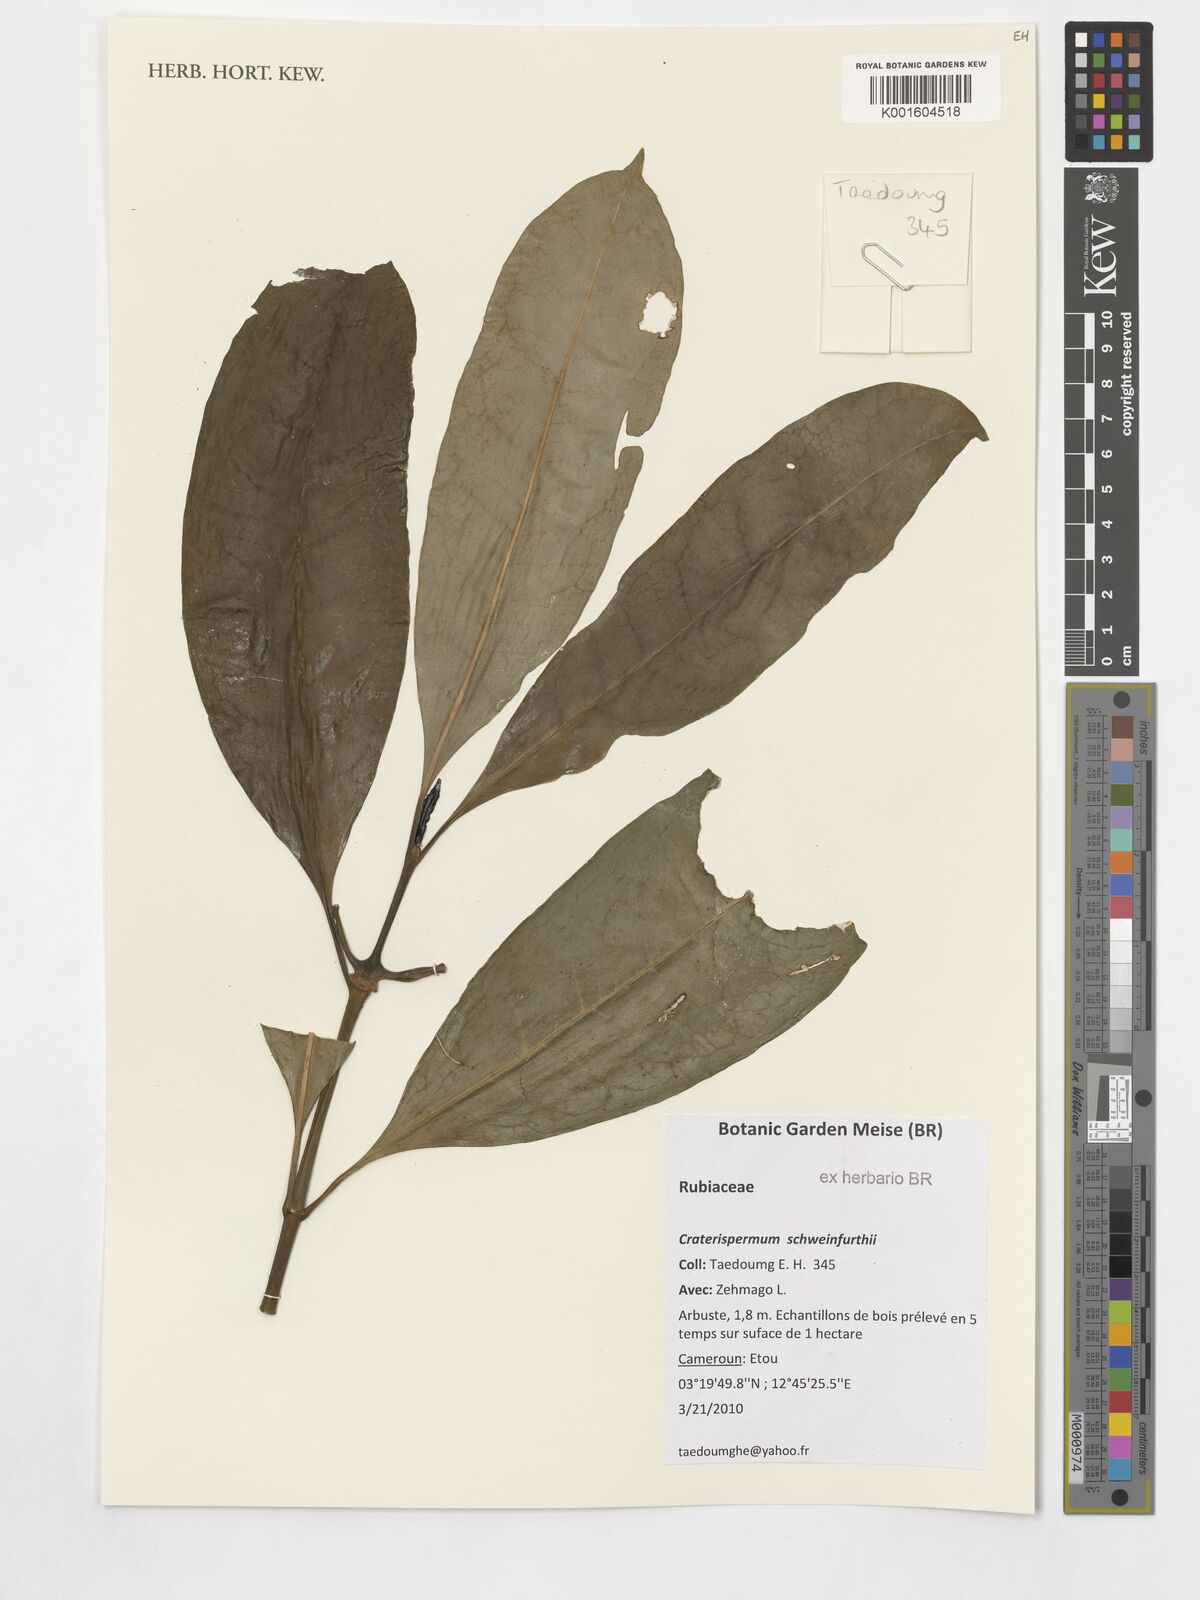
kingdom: Plantae
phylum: Tracheophyta
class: Magnoliopsida
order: Gentianales
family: Rubiaceae
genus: Craterispermum
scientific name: Craterispermum schweinfurthii
